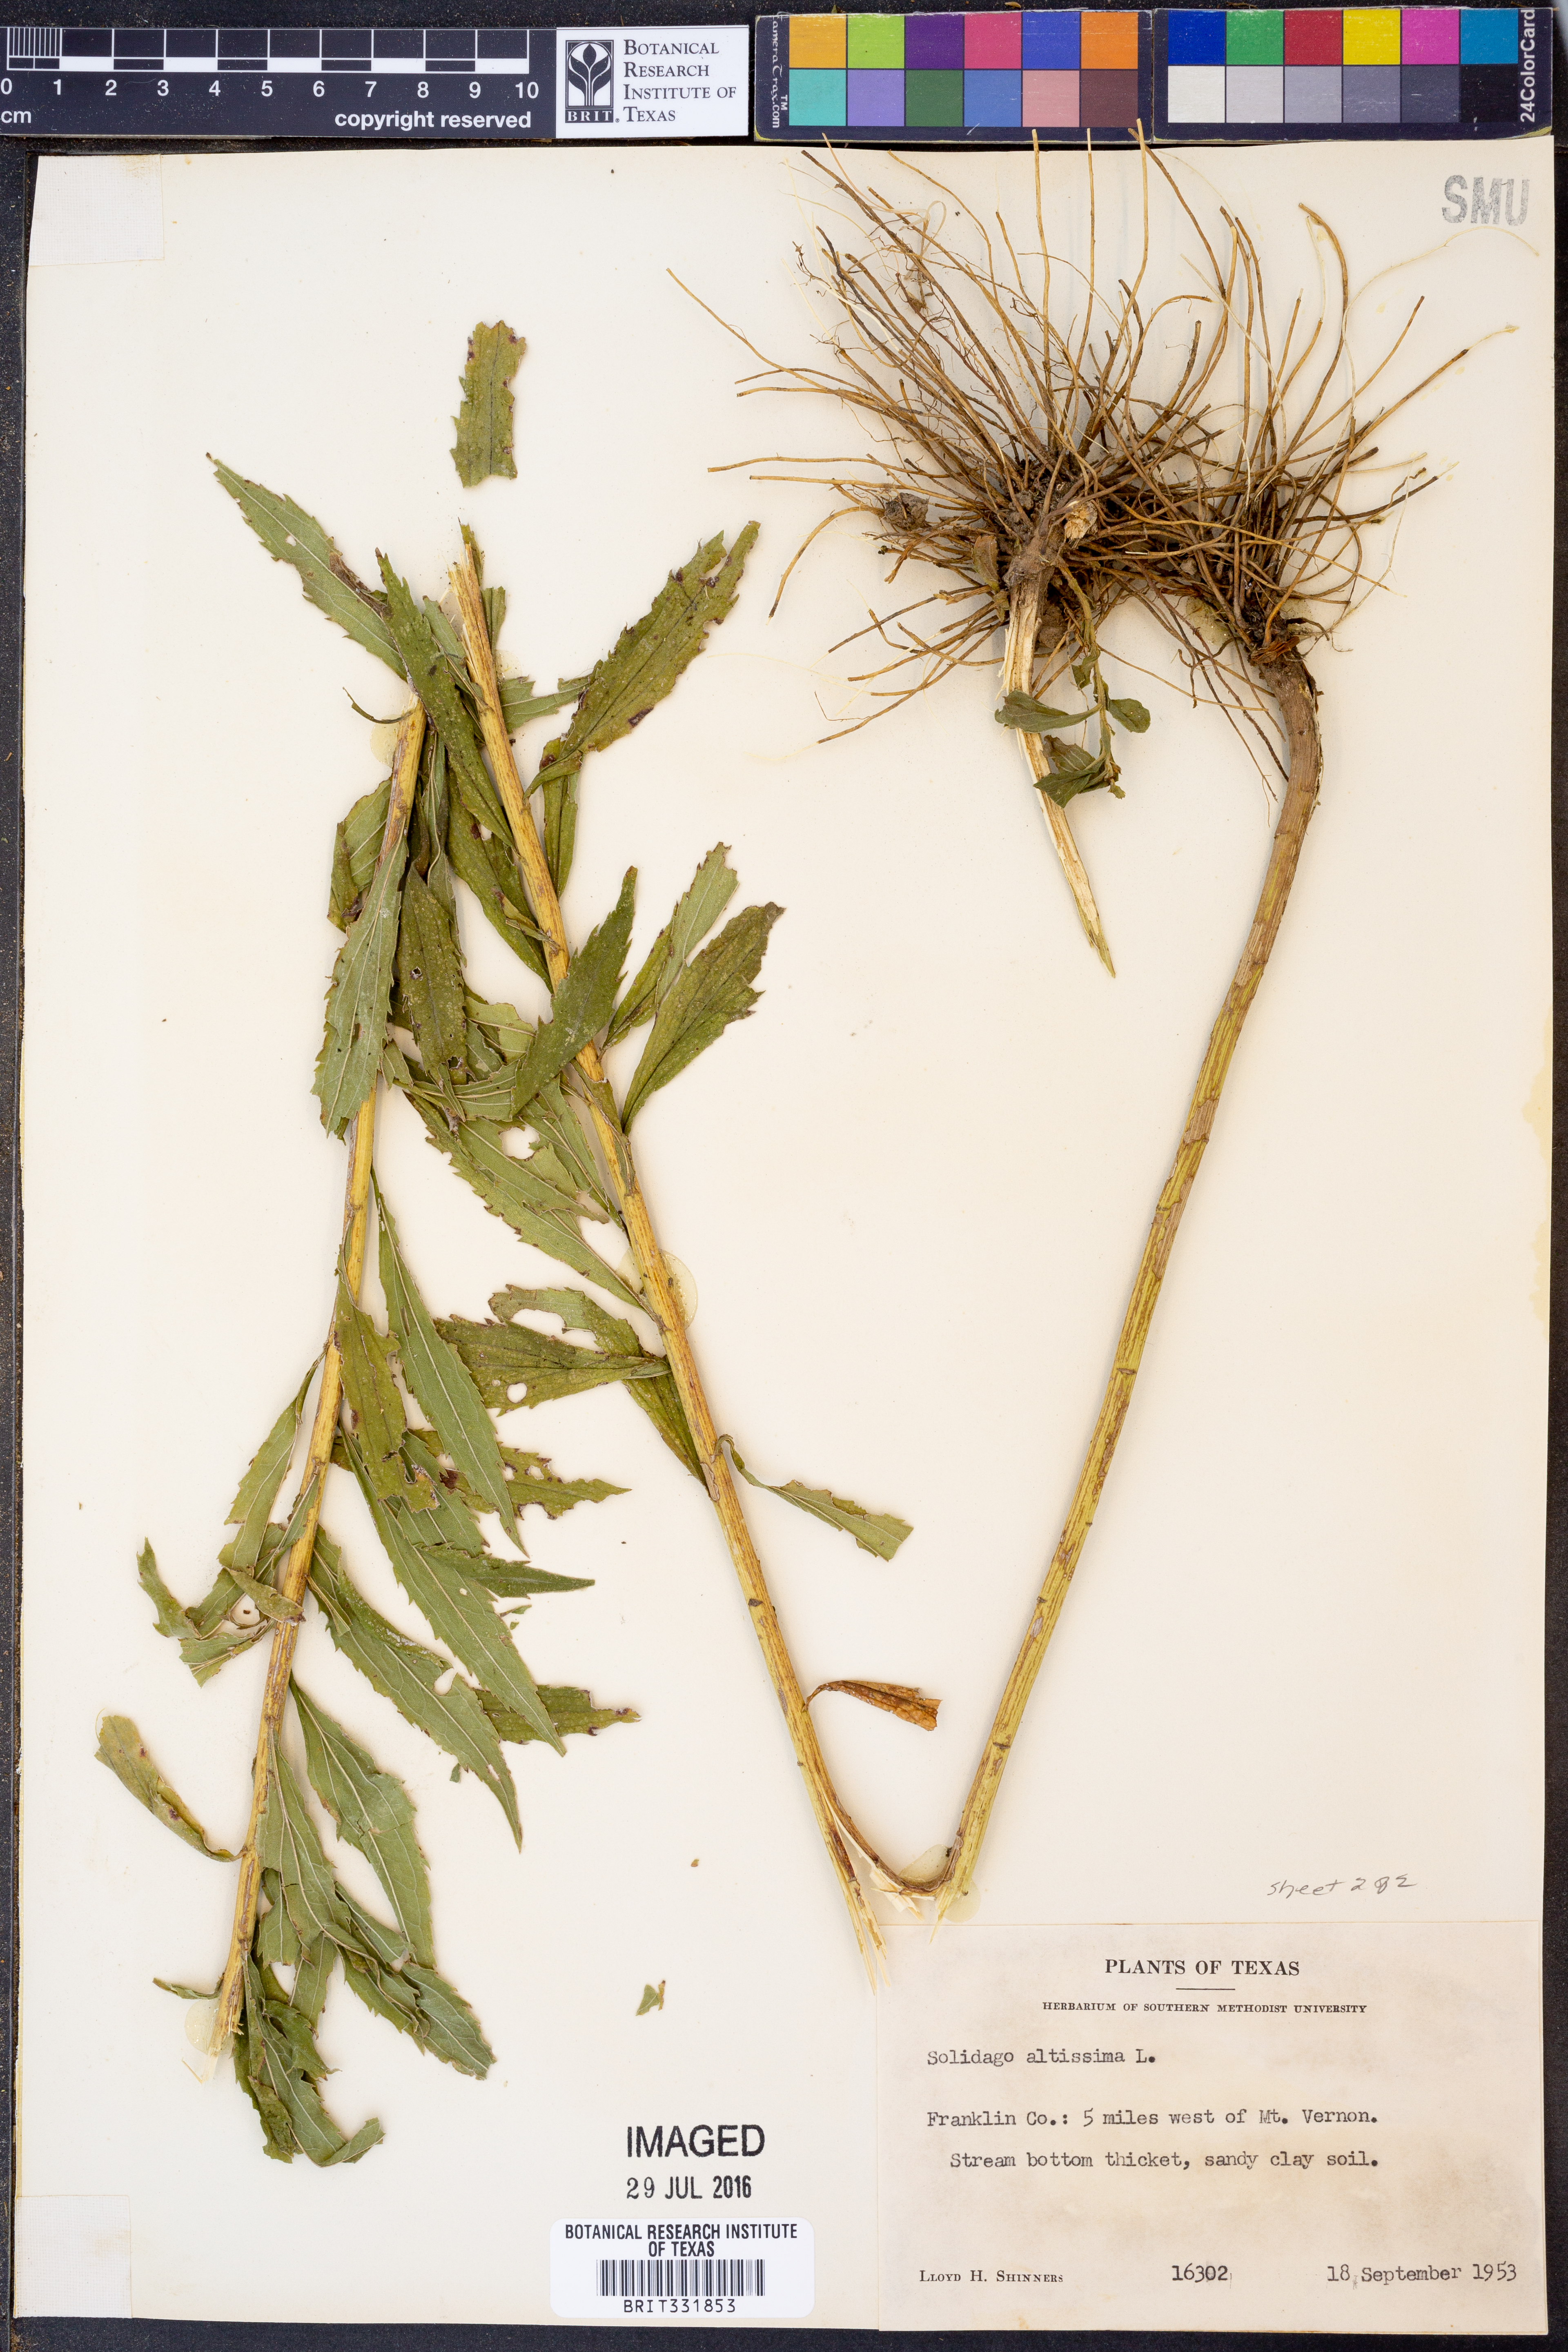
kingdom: Plantae
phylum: Tracheophyta
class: Magnoliopsida
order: Asterales
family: Asteraceae
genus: Solidago
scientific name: Solidago altissima
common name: Late goldenrod
